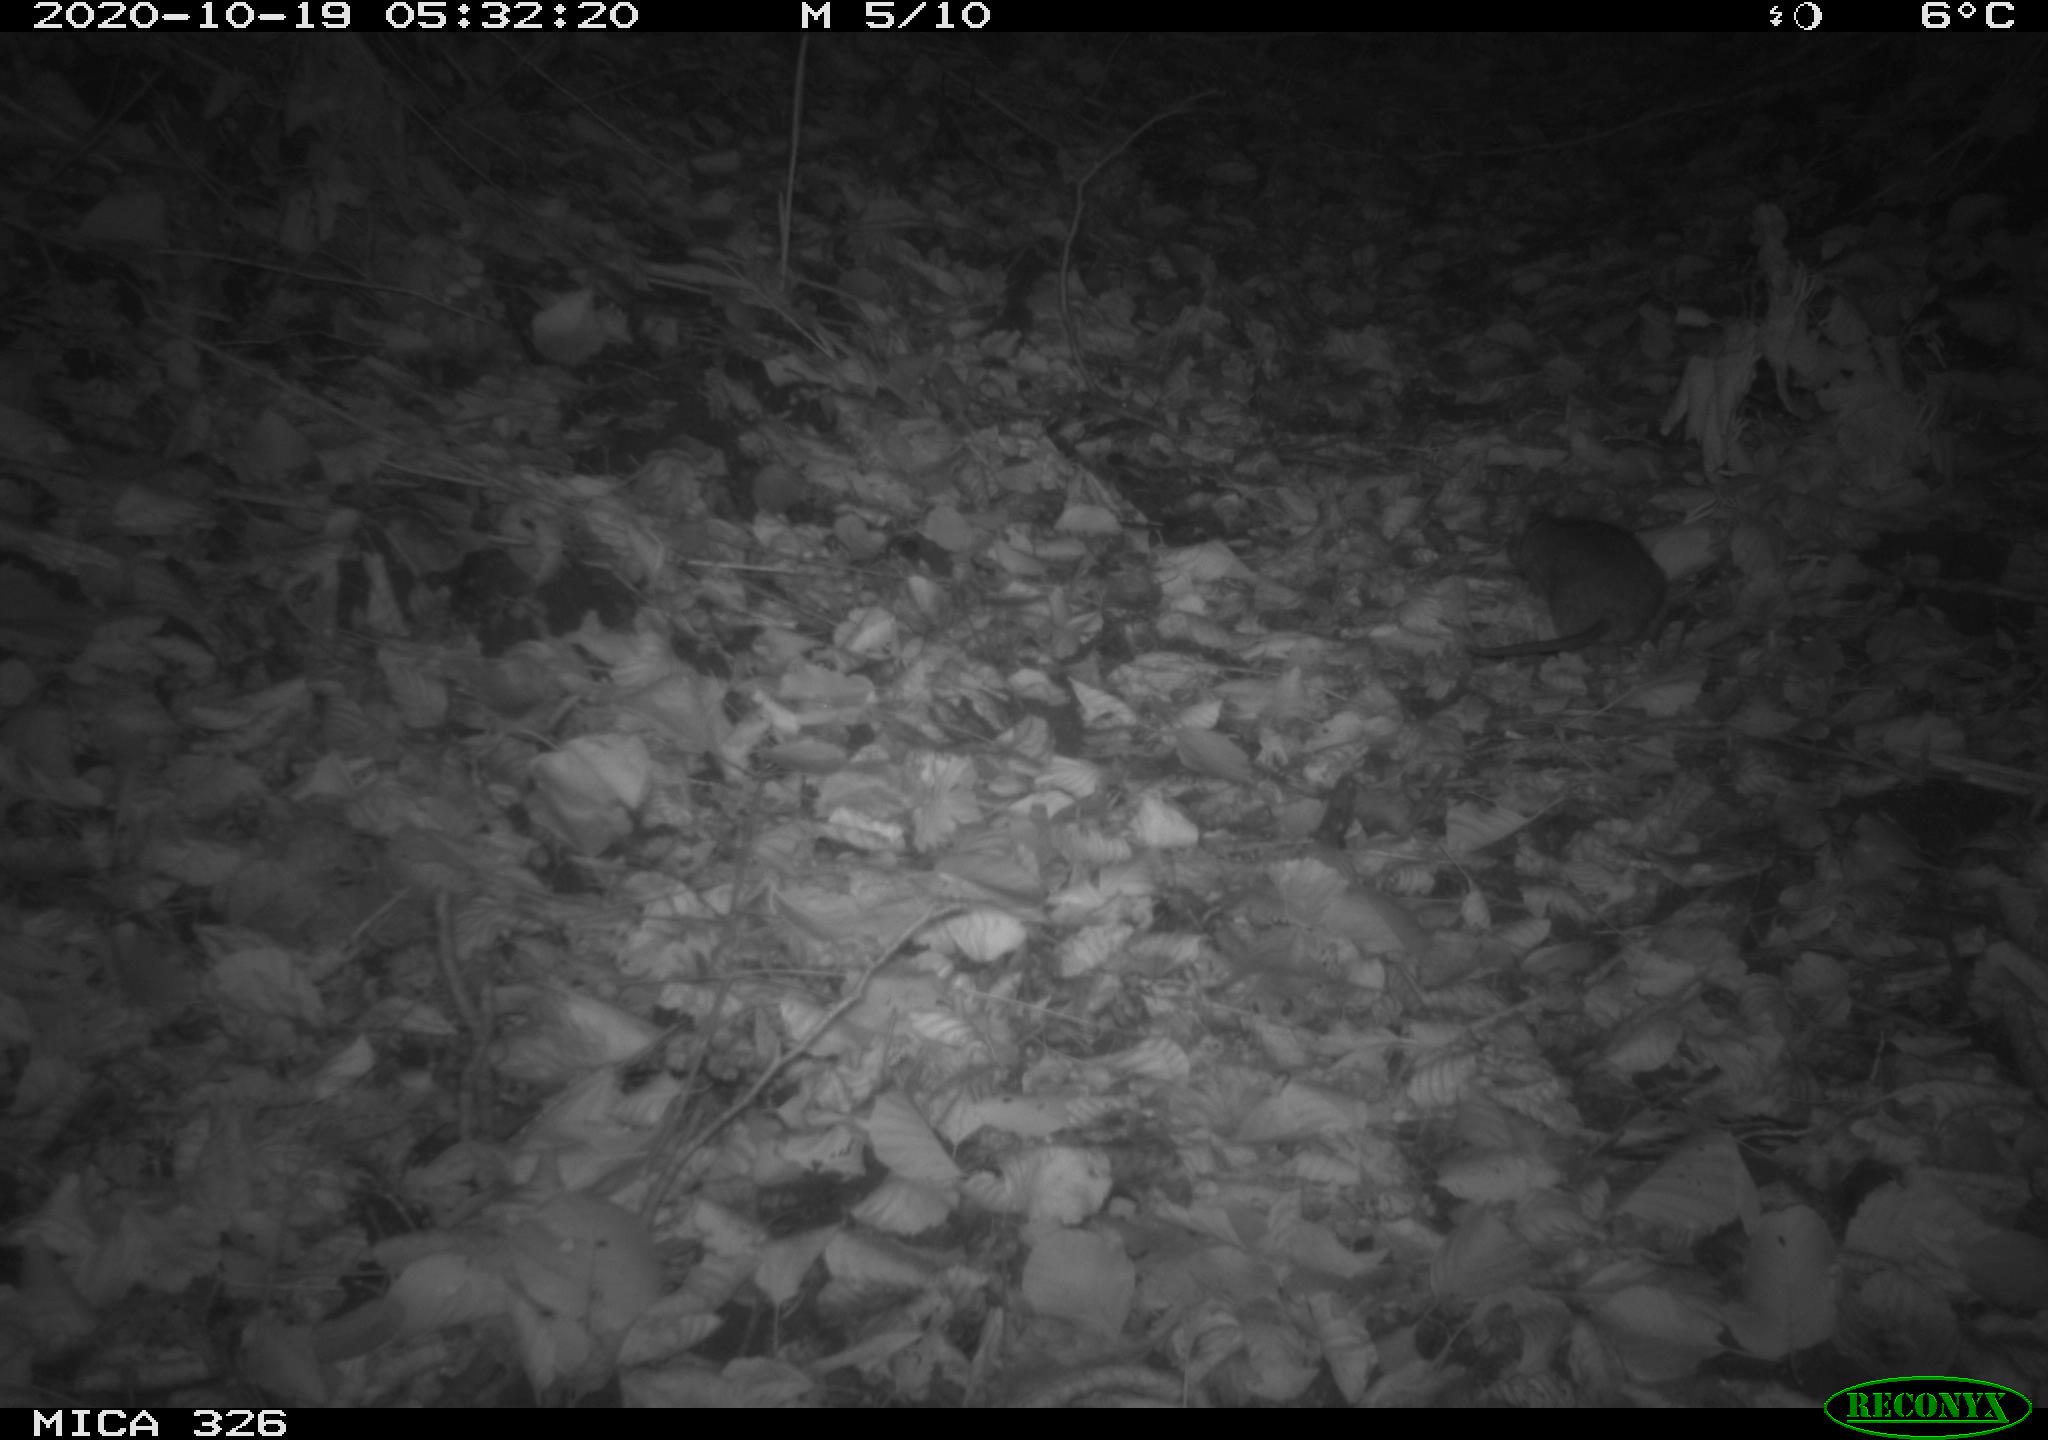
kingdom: Animalia
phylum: Chordata
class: Mammalia
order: Rodentia
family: Muridae
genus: Rattus
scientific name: Rattus norvegicus
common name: Brown rat
